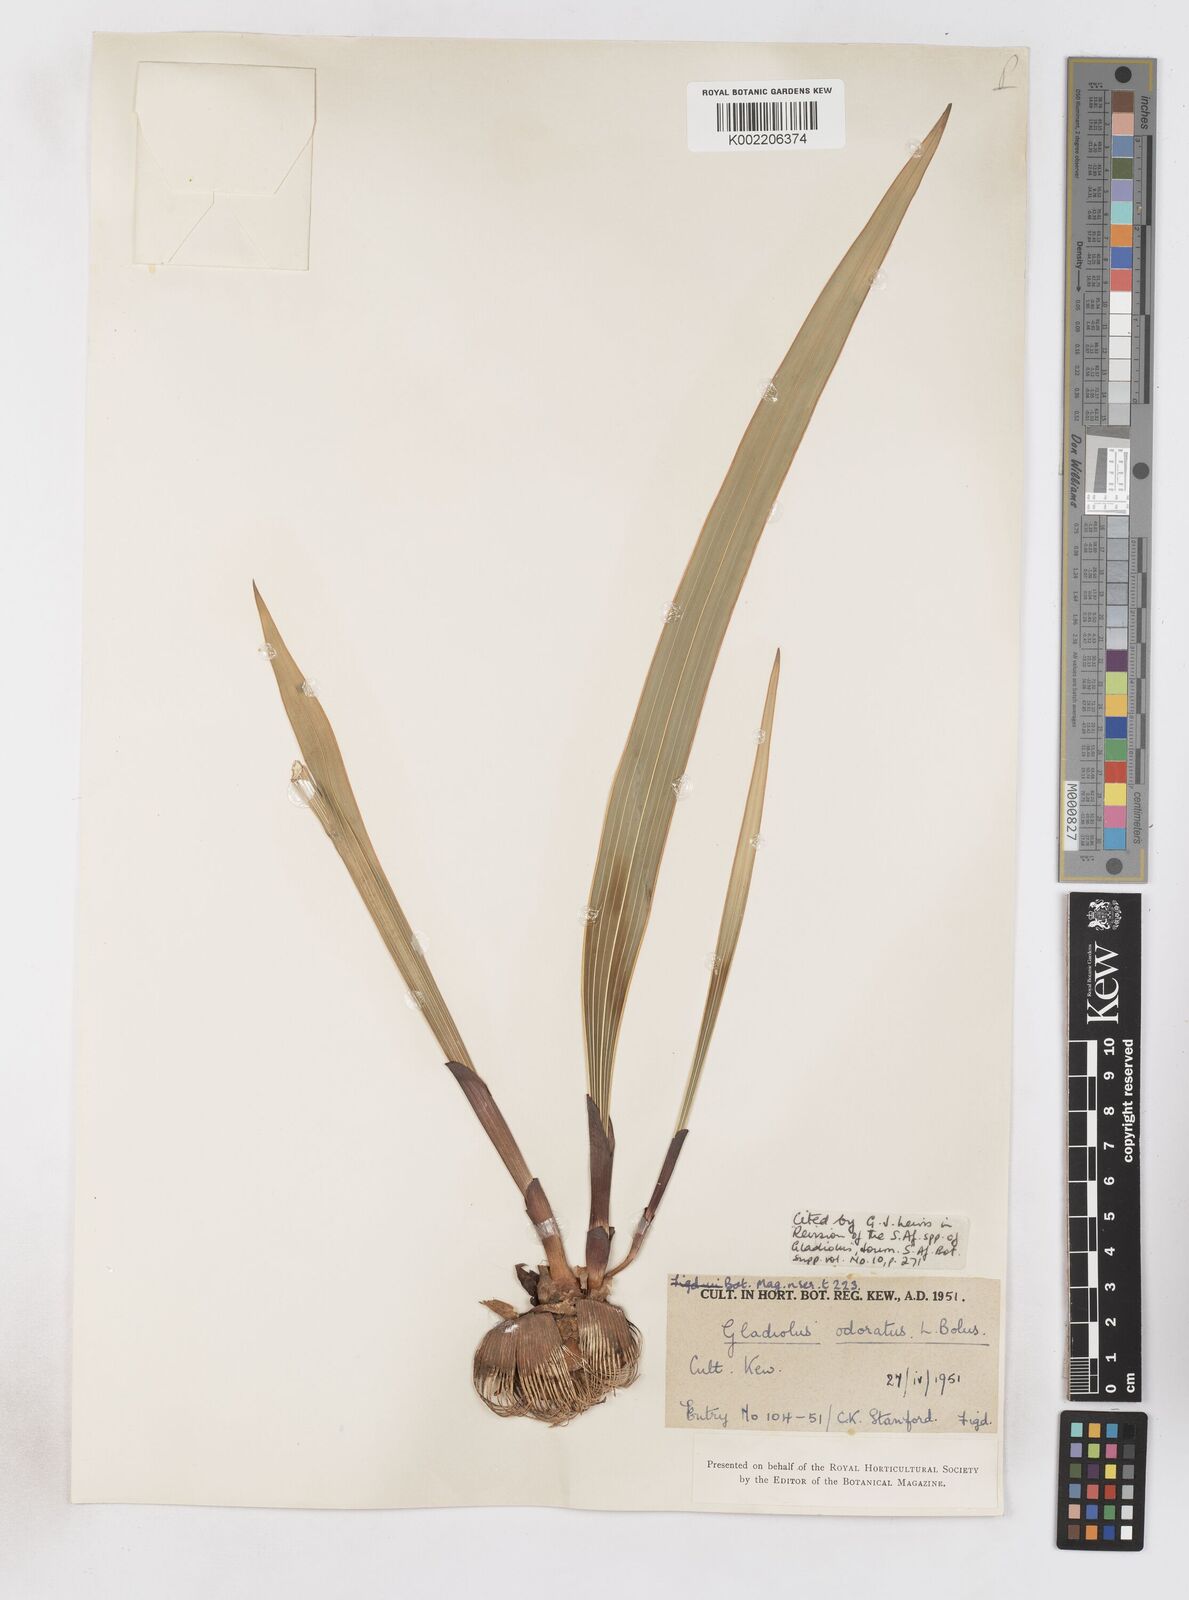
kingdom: Plantae
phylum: Tracheophyta
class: Liliopsida
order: Asparagales
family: Iridaceae
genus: Gladiolus
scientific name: Gladiolus guthriei
